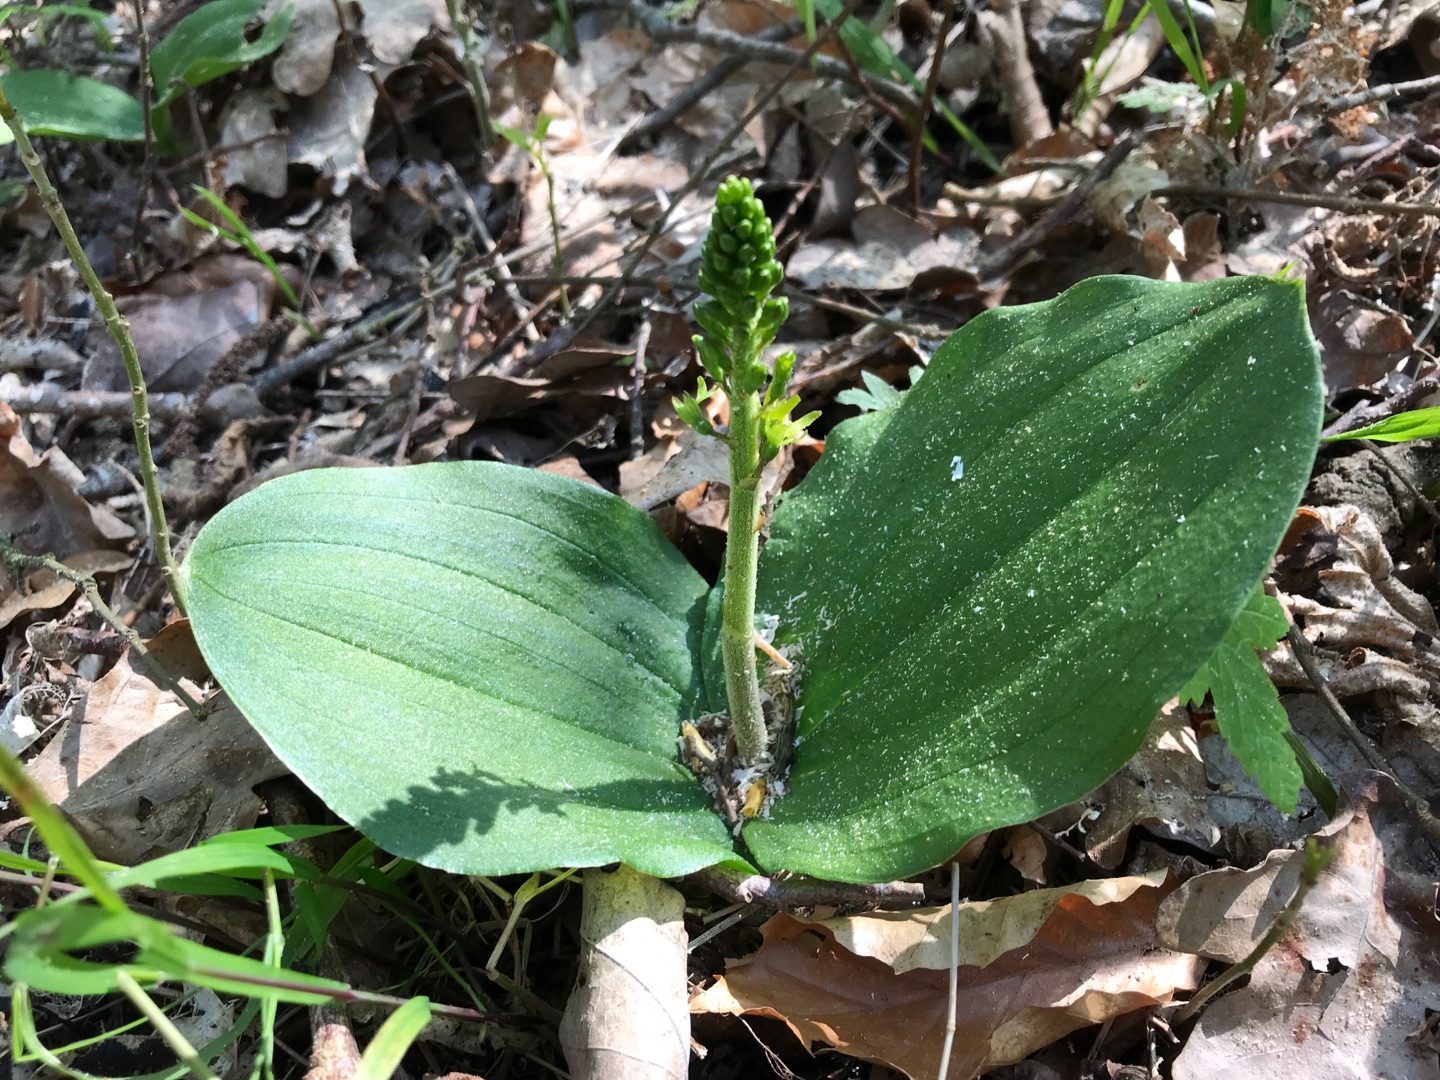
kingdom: Plantae
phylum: Tracheophyta
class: Liliopsida
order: Asparagales
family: Orchidaceae
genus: Neottia
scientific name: Neottia ovata
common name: Ægbladet fliglæbe
